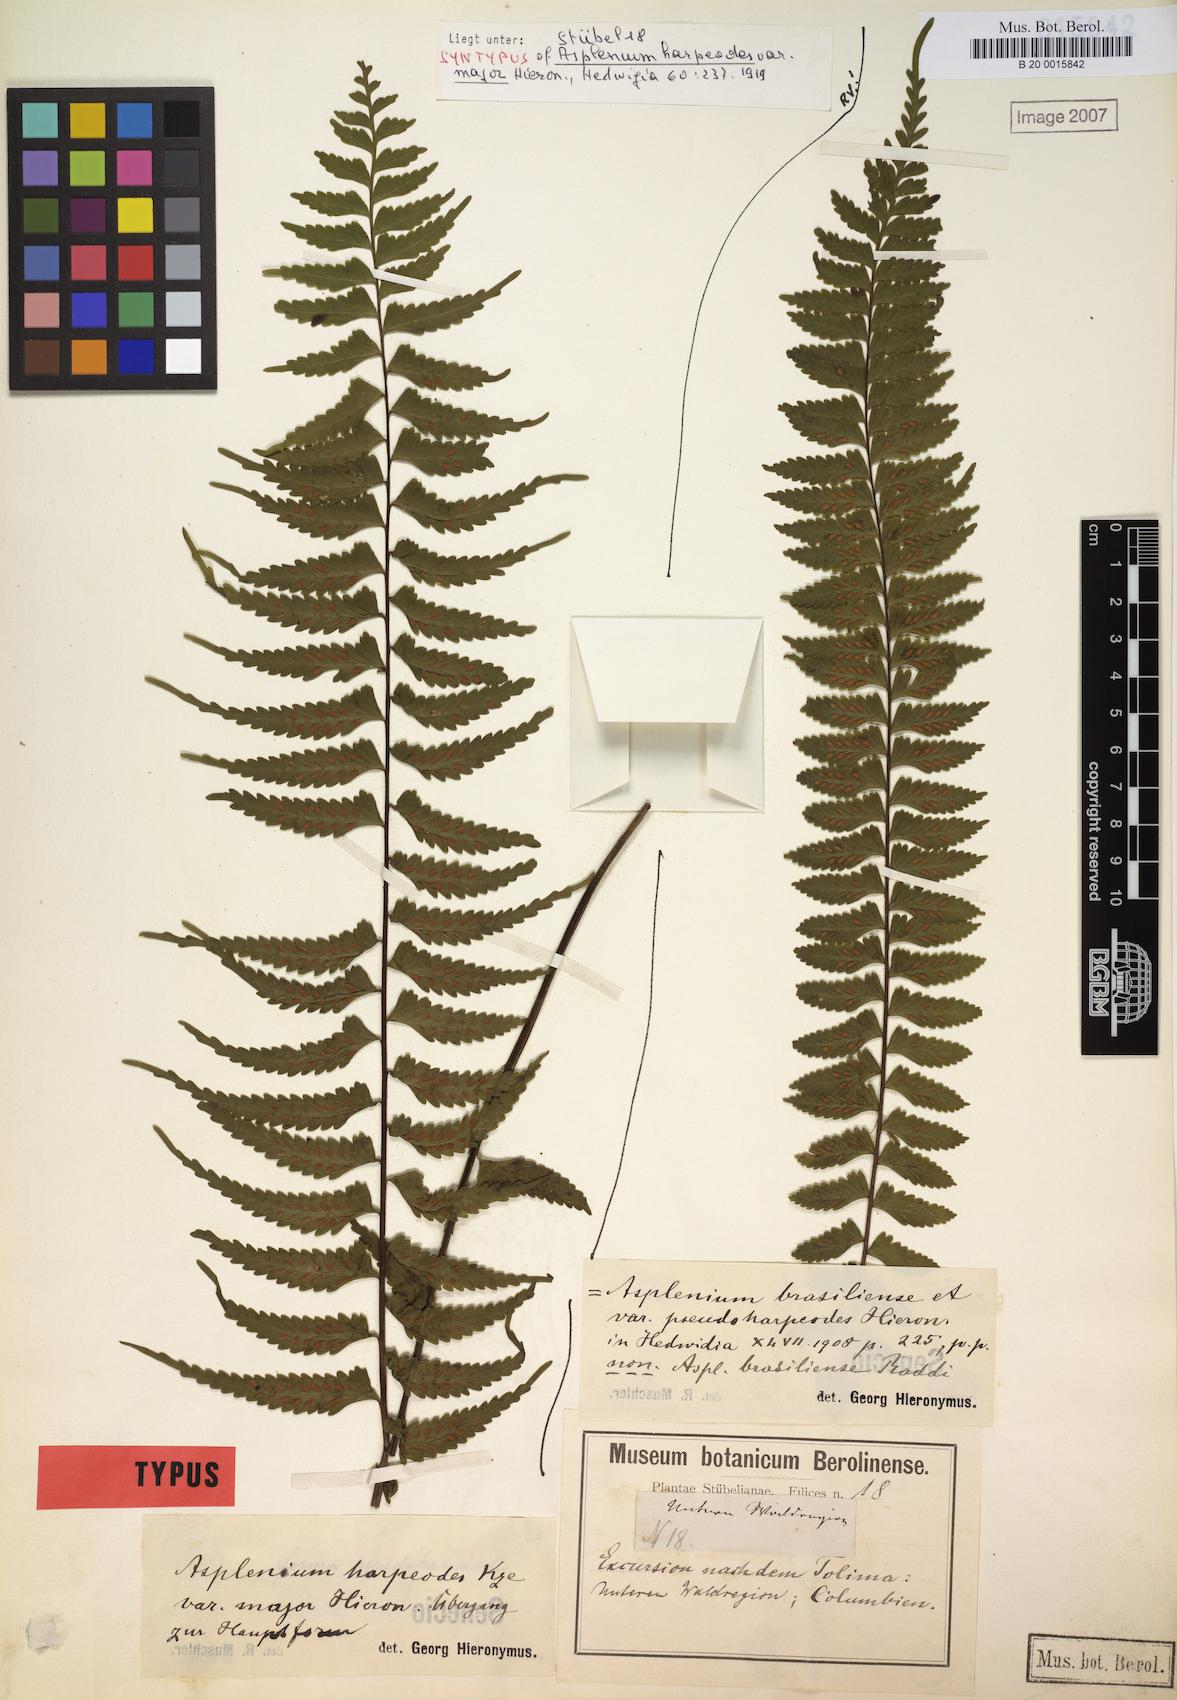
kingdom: Plantae
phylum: Tracheophyta
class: Polypodiopsida
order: Polypodiales
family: Aspleniaceae
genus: Asplenium
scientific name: Asplenium harpeodes
